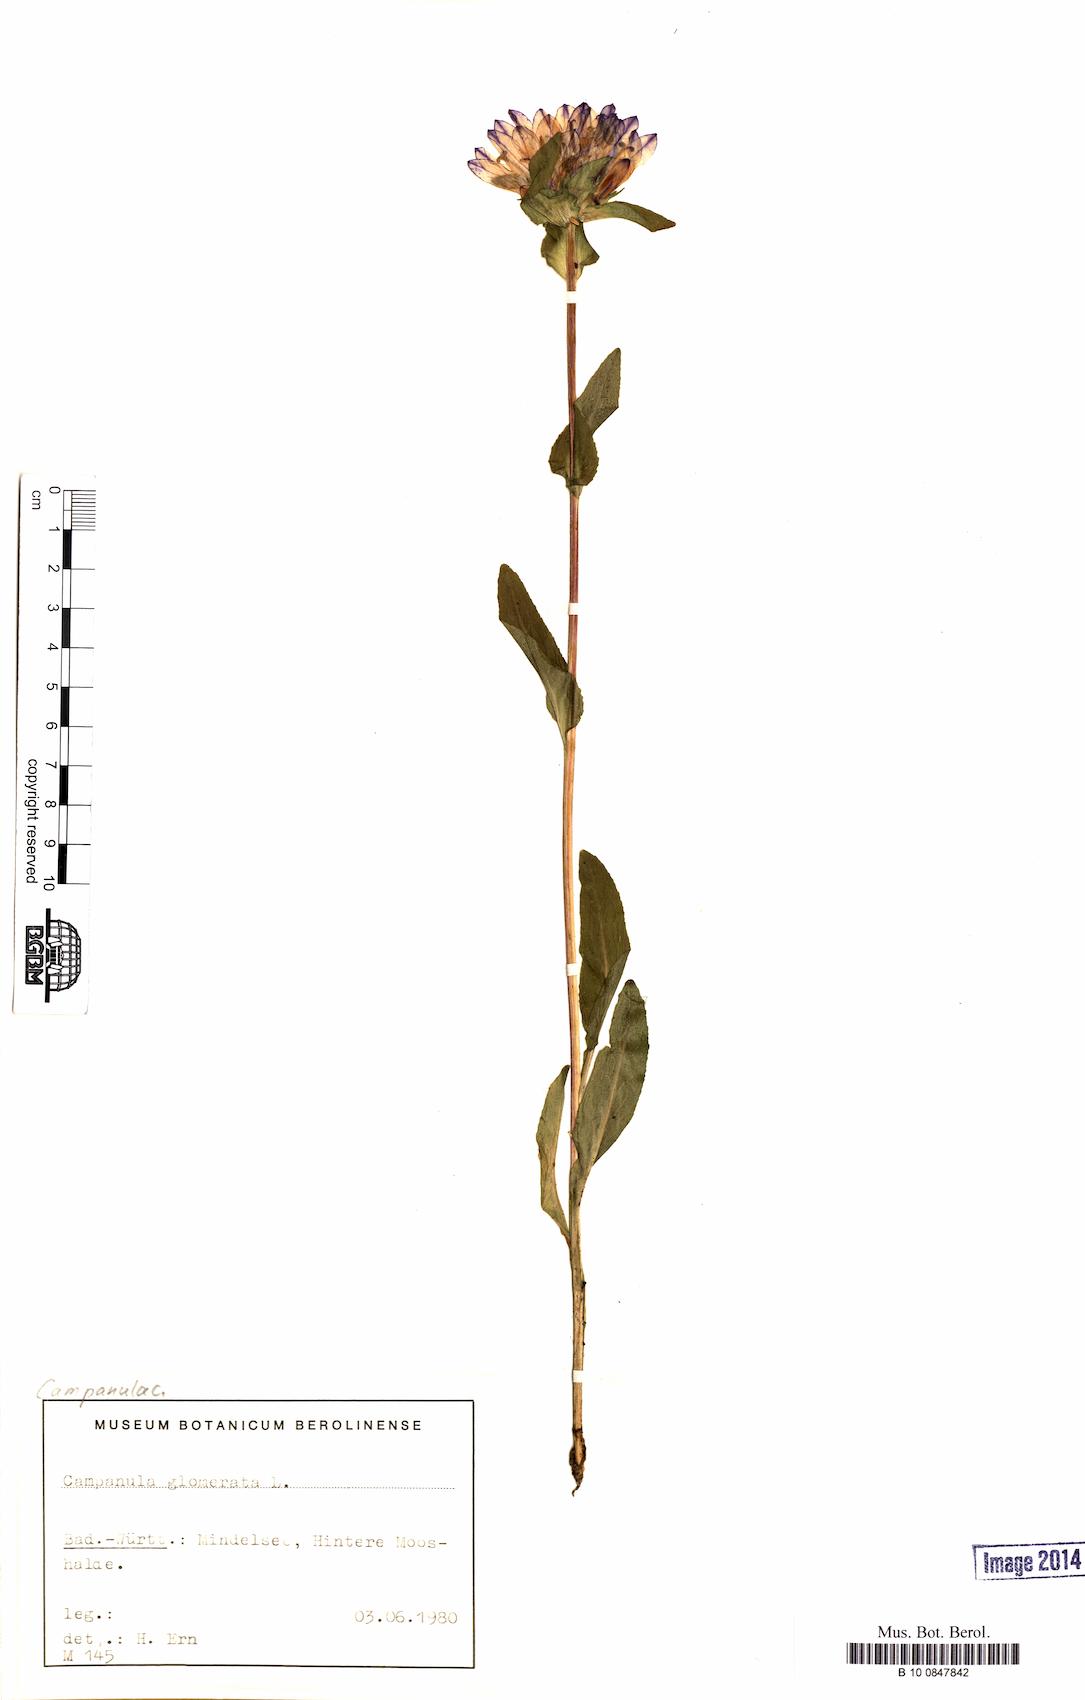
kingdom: Plantae
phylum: Tracheophyta
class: Magnoliopsida
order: Asterales
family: Campanulaceae
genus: Campanula
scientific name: Campanula glomerata
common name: Clustered bellflower
